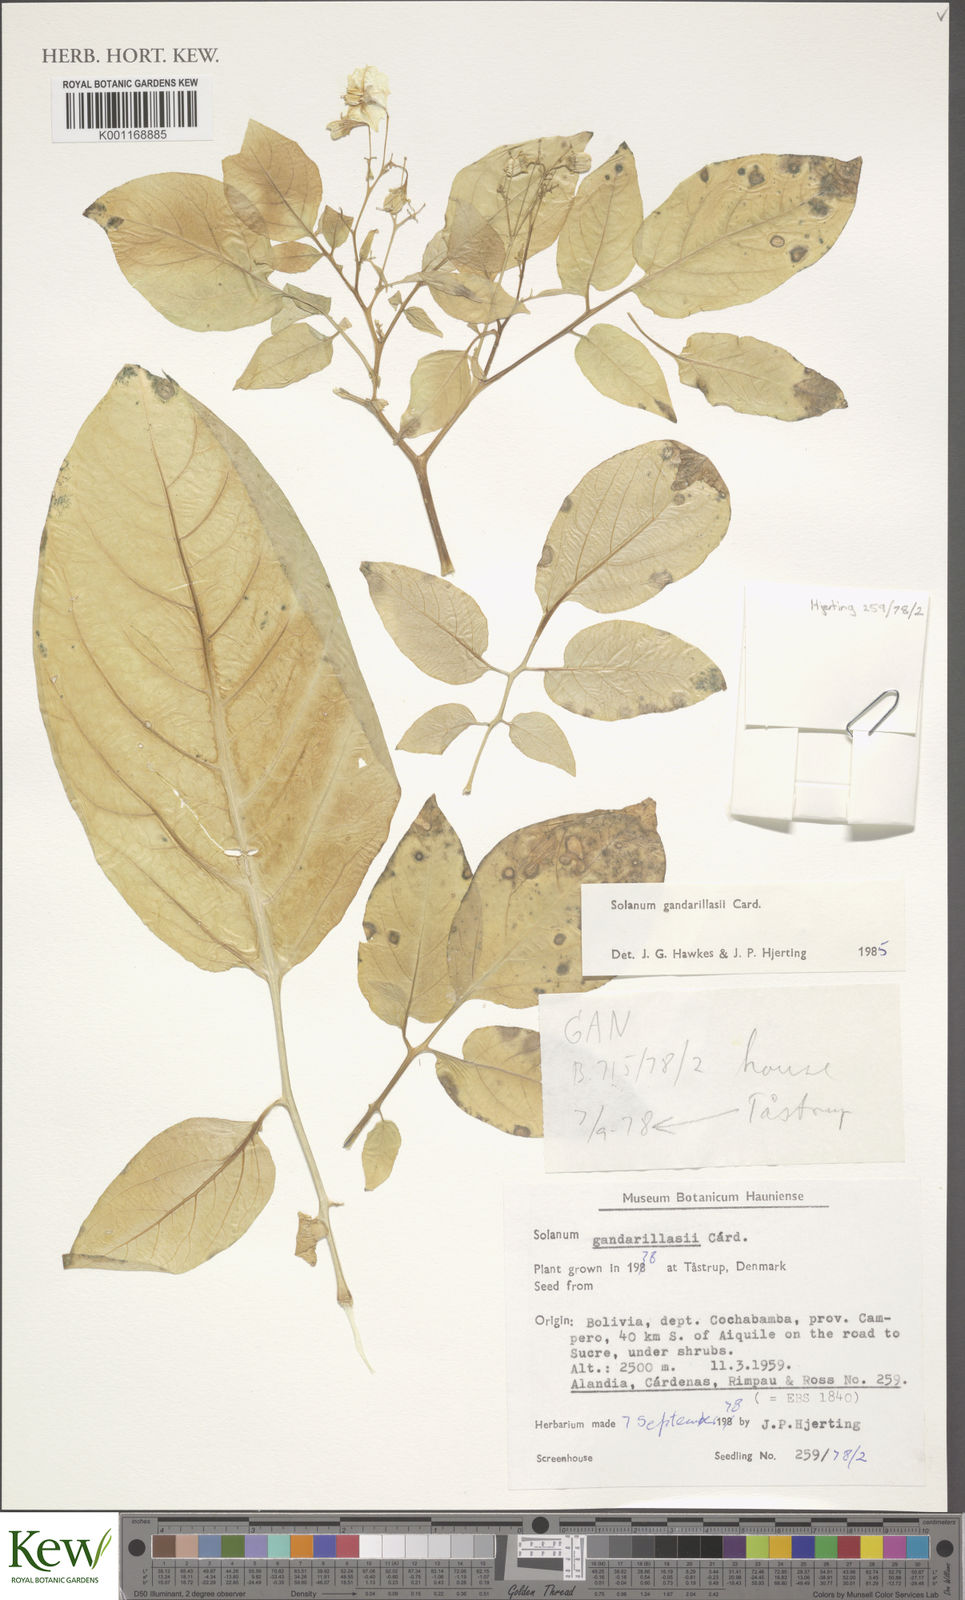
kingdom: Plantae
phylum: Tracheophyta
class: Magnoliopsida
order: Solanales
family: Solanaceae
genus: Solanum
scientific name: Solanum
